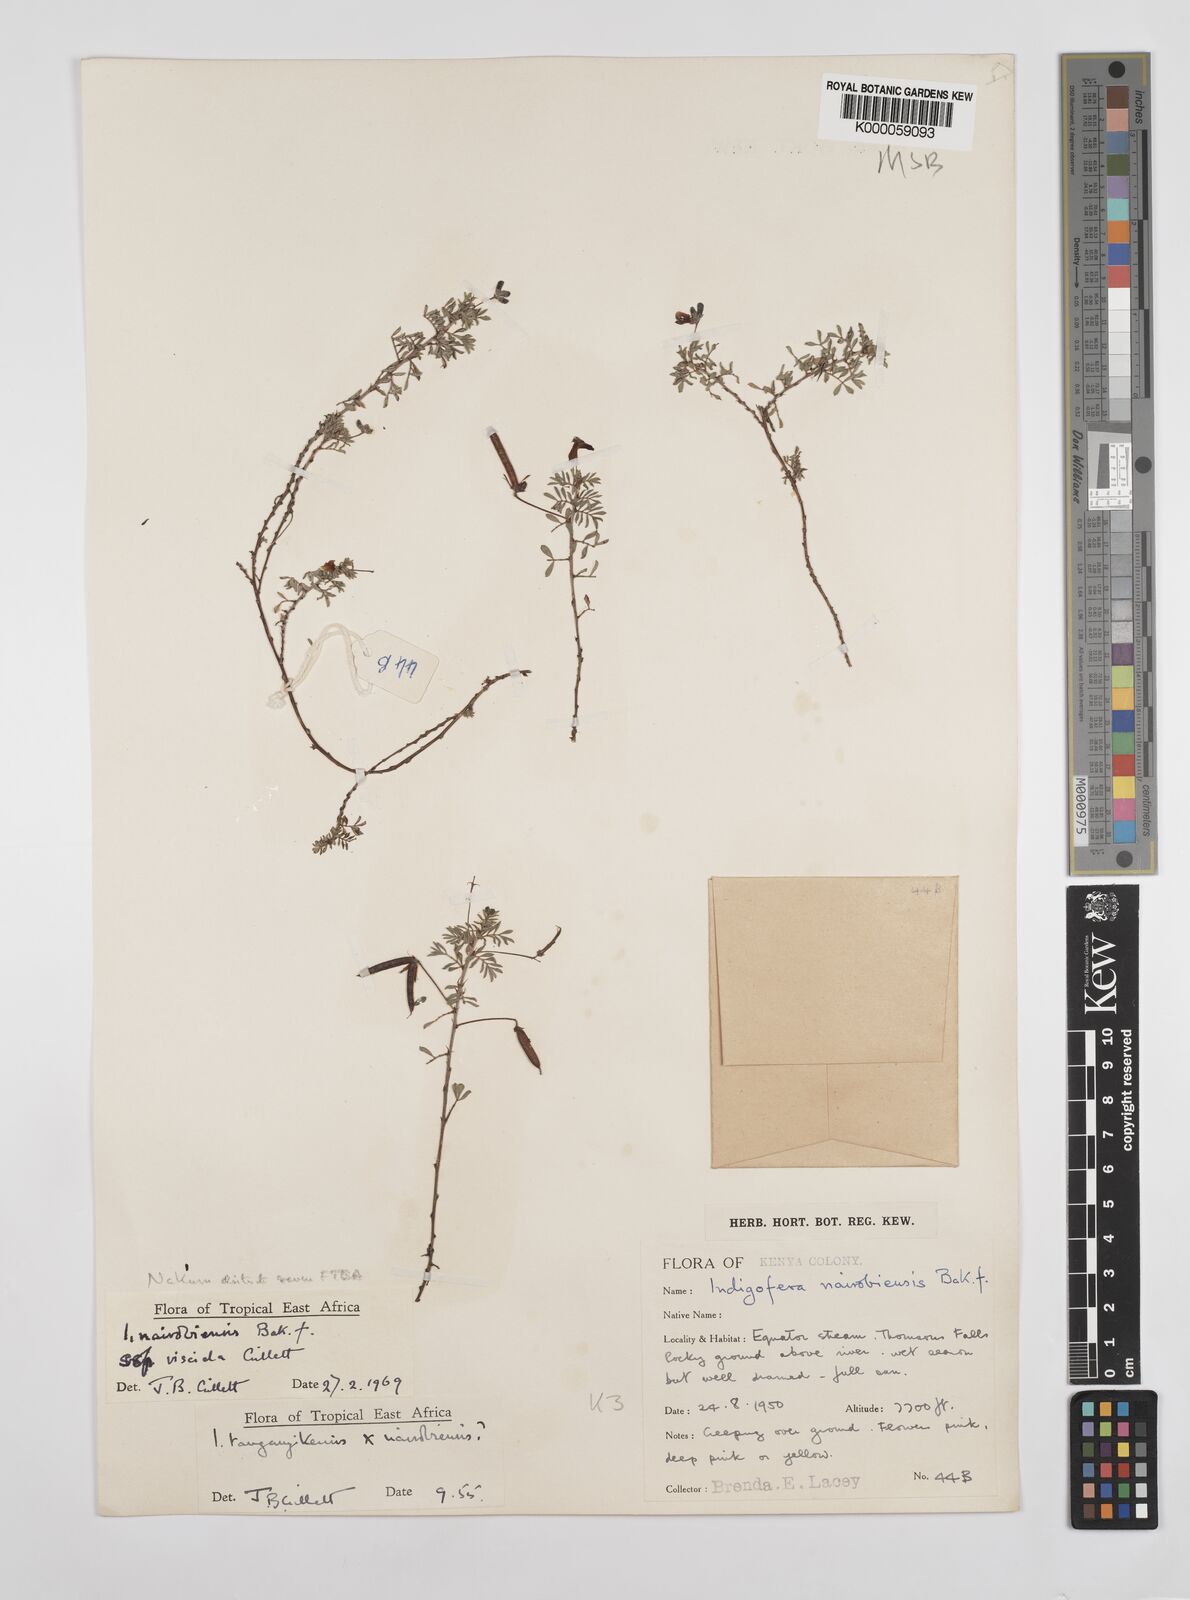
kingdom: Plantae
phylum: Tracheophyta
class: Magnoliopsida
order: Fabales
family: Fabaceae
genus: Indigofera
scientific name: Indigofera nairobiensis
